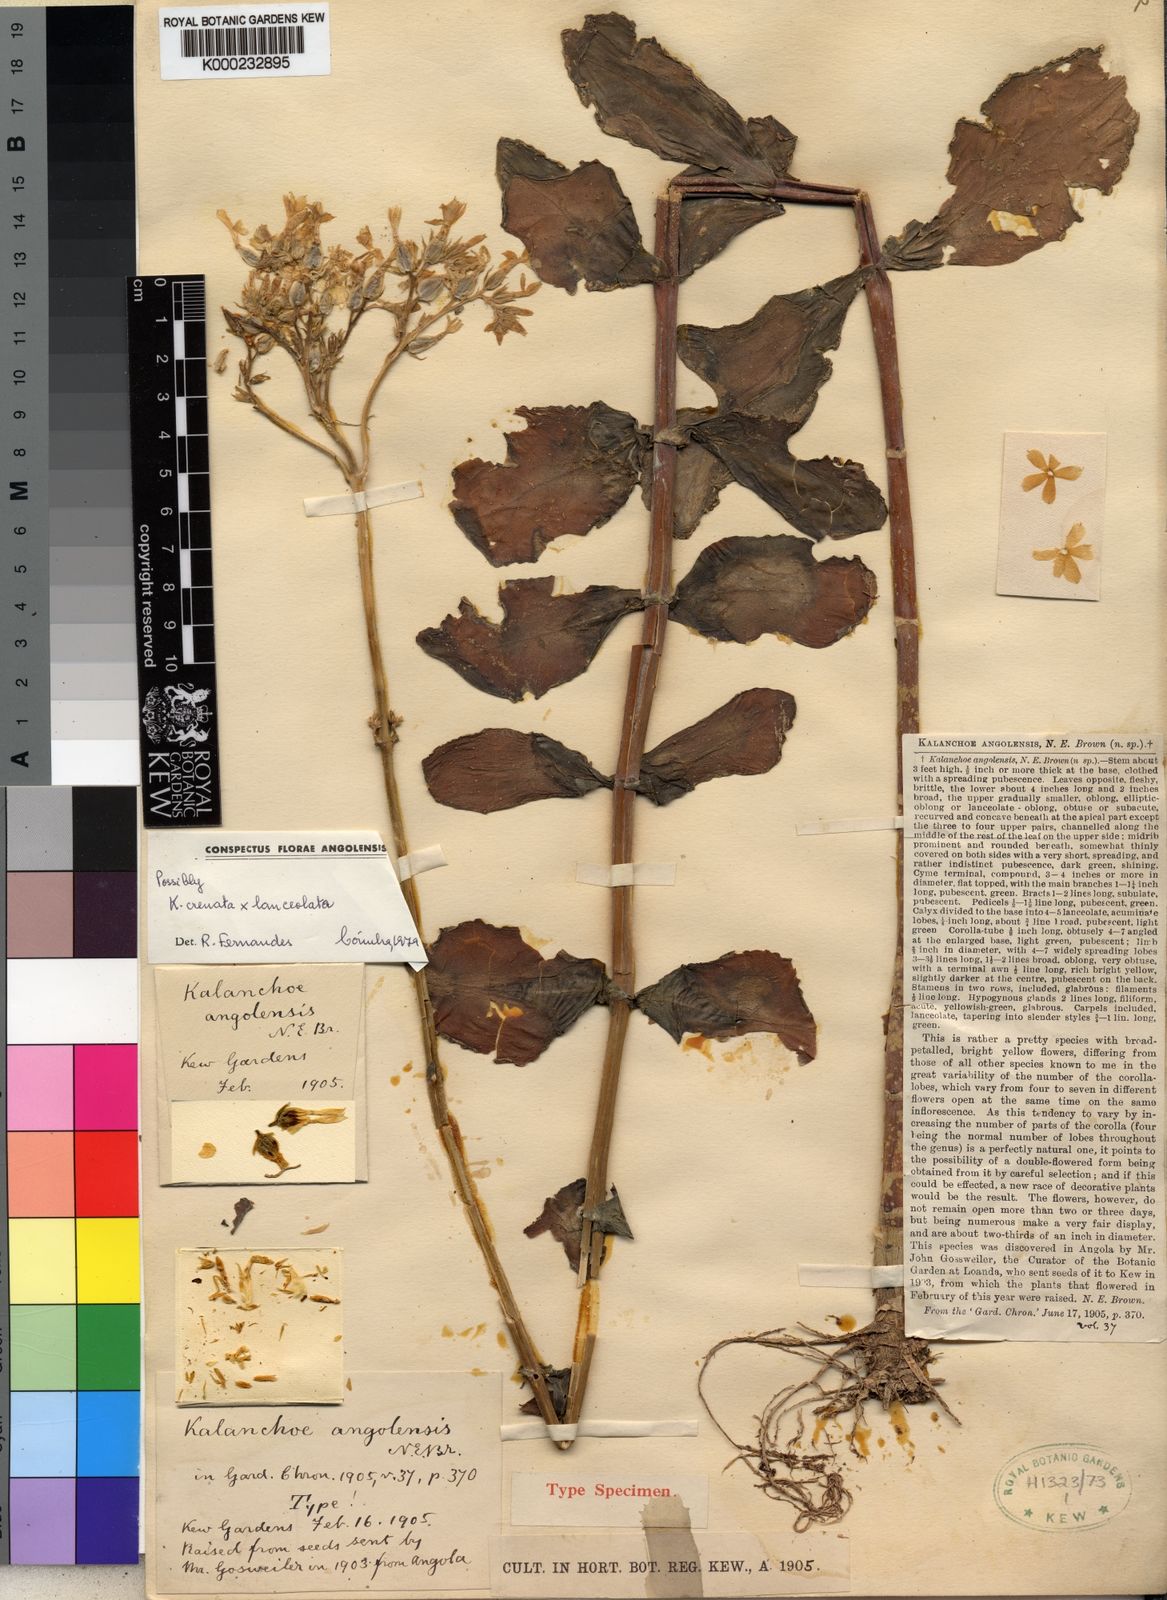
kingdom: Plantae
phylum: Tracheophyta
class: Magnoliopsida
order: Saxifragales
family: Crassulaceae
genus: Kalanchoe
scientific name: Kalanchoe angolensis
